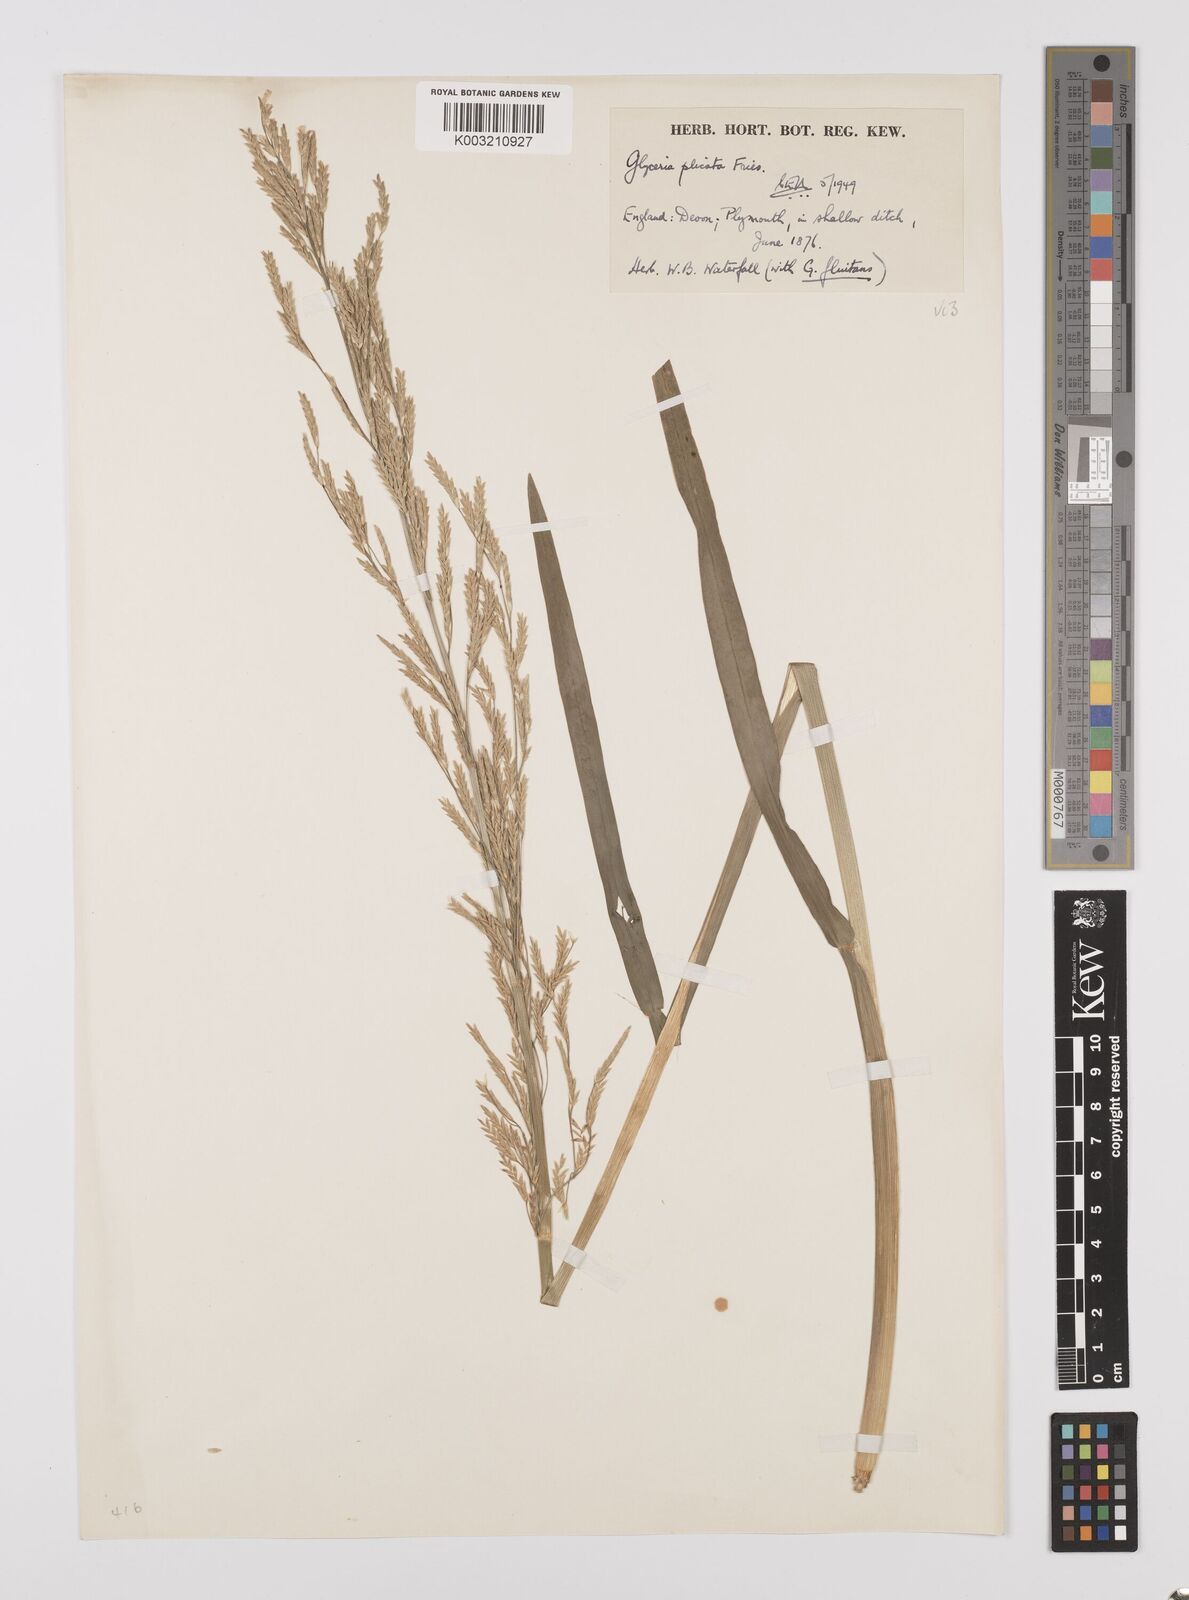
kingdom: Plantae
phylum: Tracheophyta
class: Liliopsida
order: Poales
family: Poaceae
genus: Glyceria
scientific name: Glyceria notata
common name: Plicate sweet-grass
